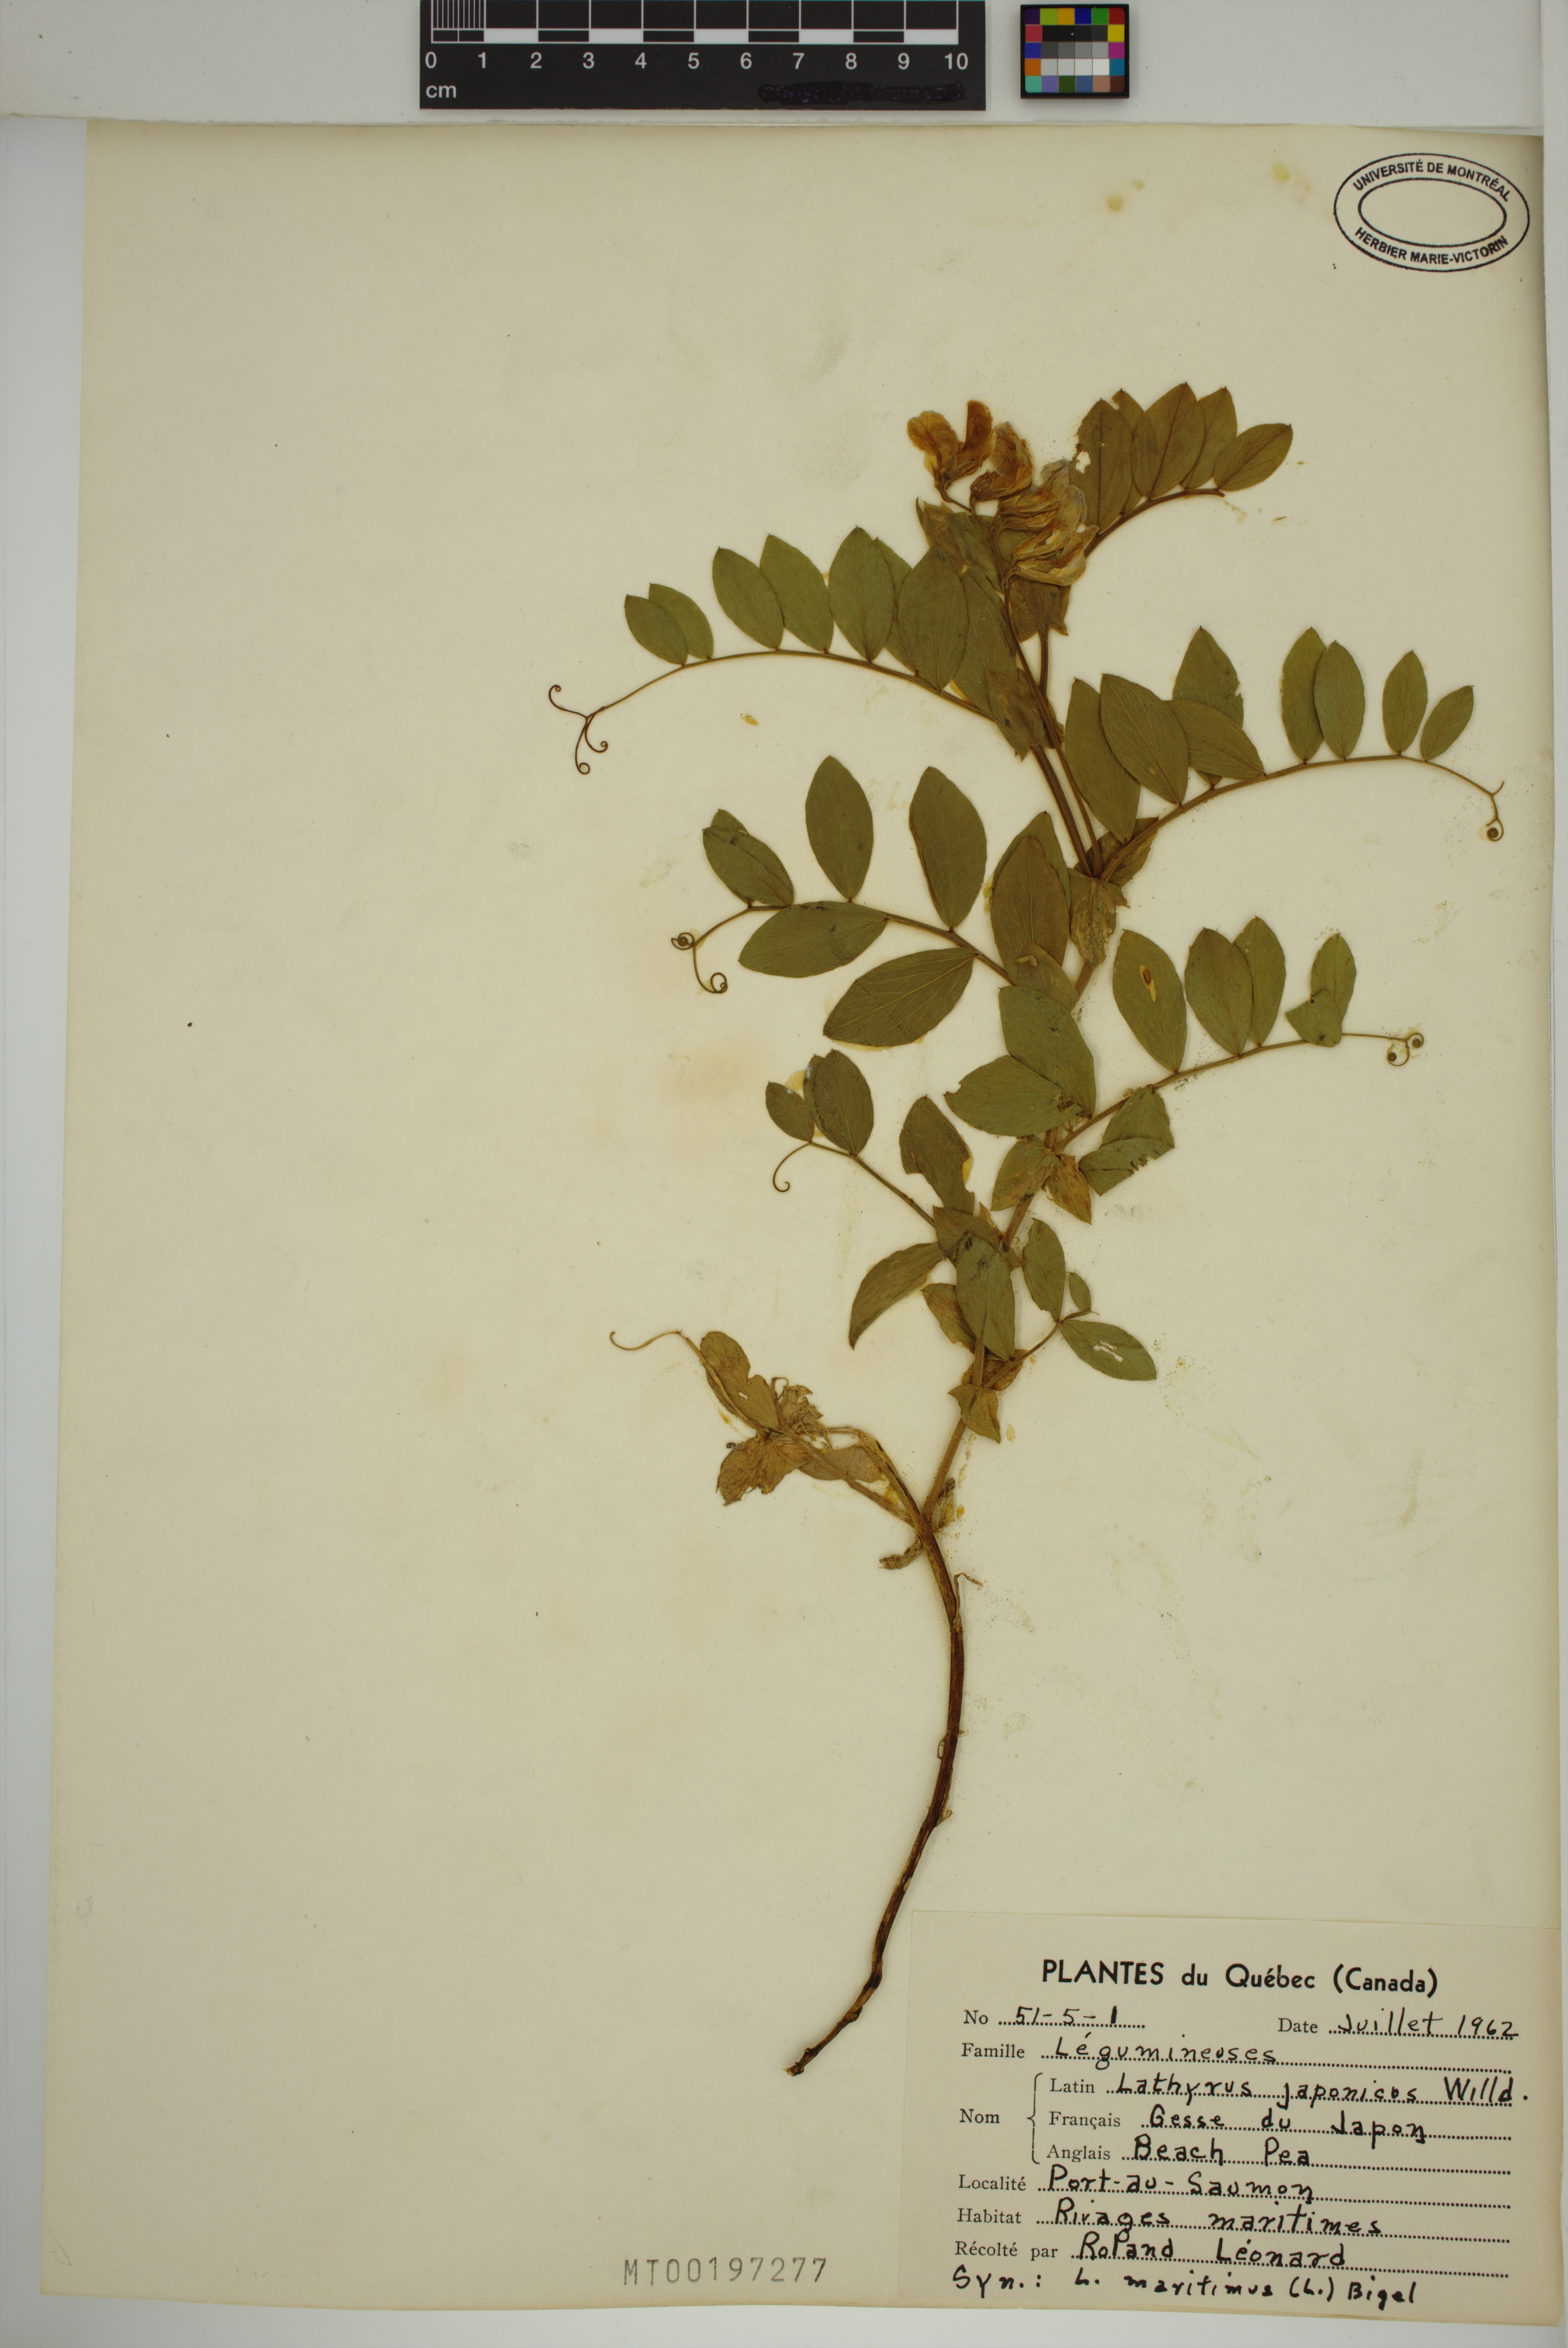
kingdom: Plantae
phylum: Tracheophyta
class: Magnoliopsida
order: Fabales
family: Fabaceae
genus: Lathyrus
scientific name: Lathyrus japonicus
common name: Sea pea
